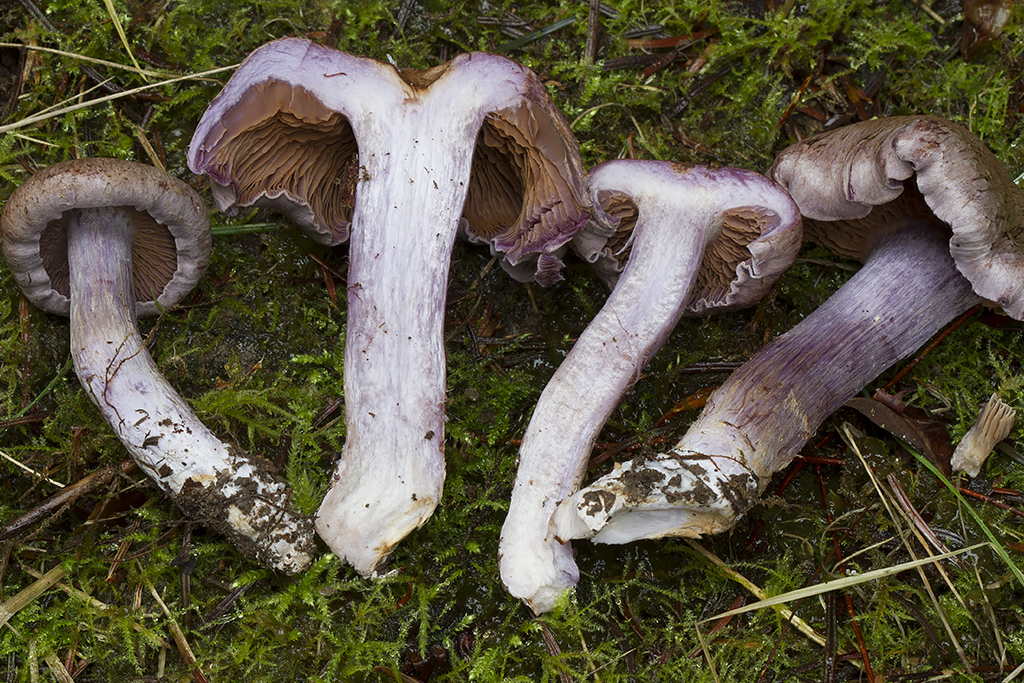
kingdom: Fungi
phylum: Basidiomycota
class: Agaricomycetes
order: Agaricales
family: Cortinariaceae
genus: Phlegmacium
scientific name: Phlegmacium eliae
